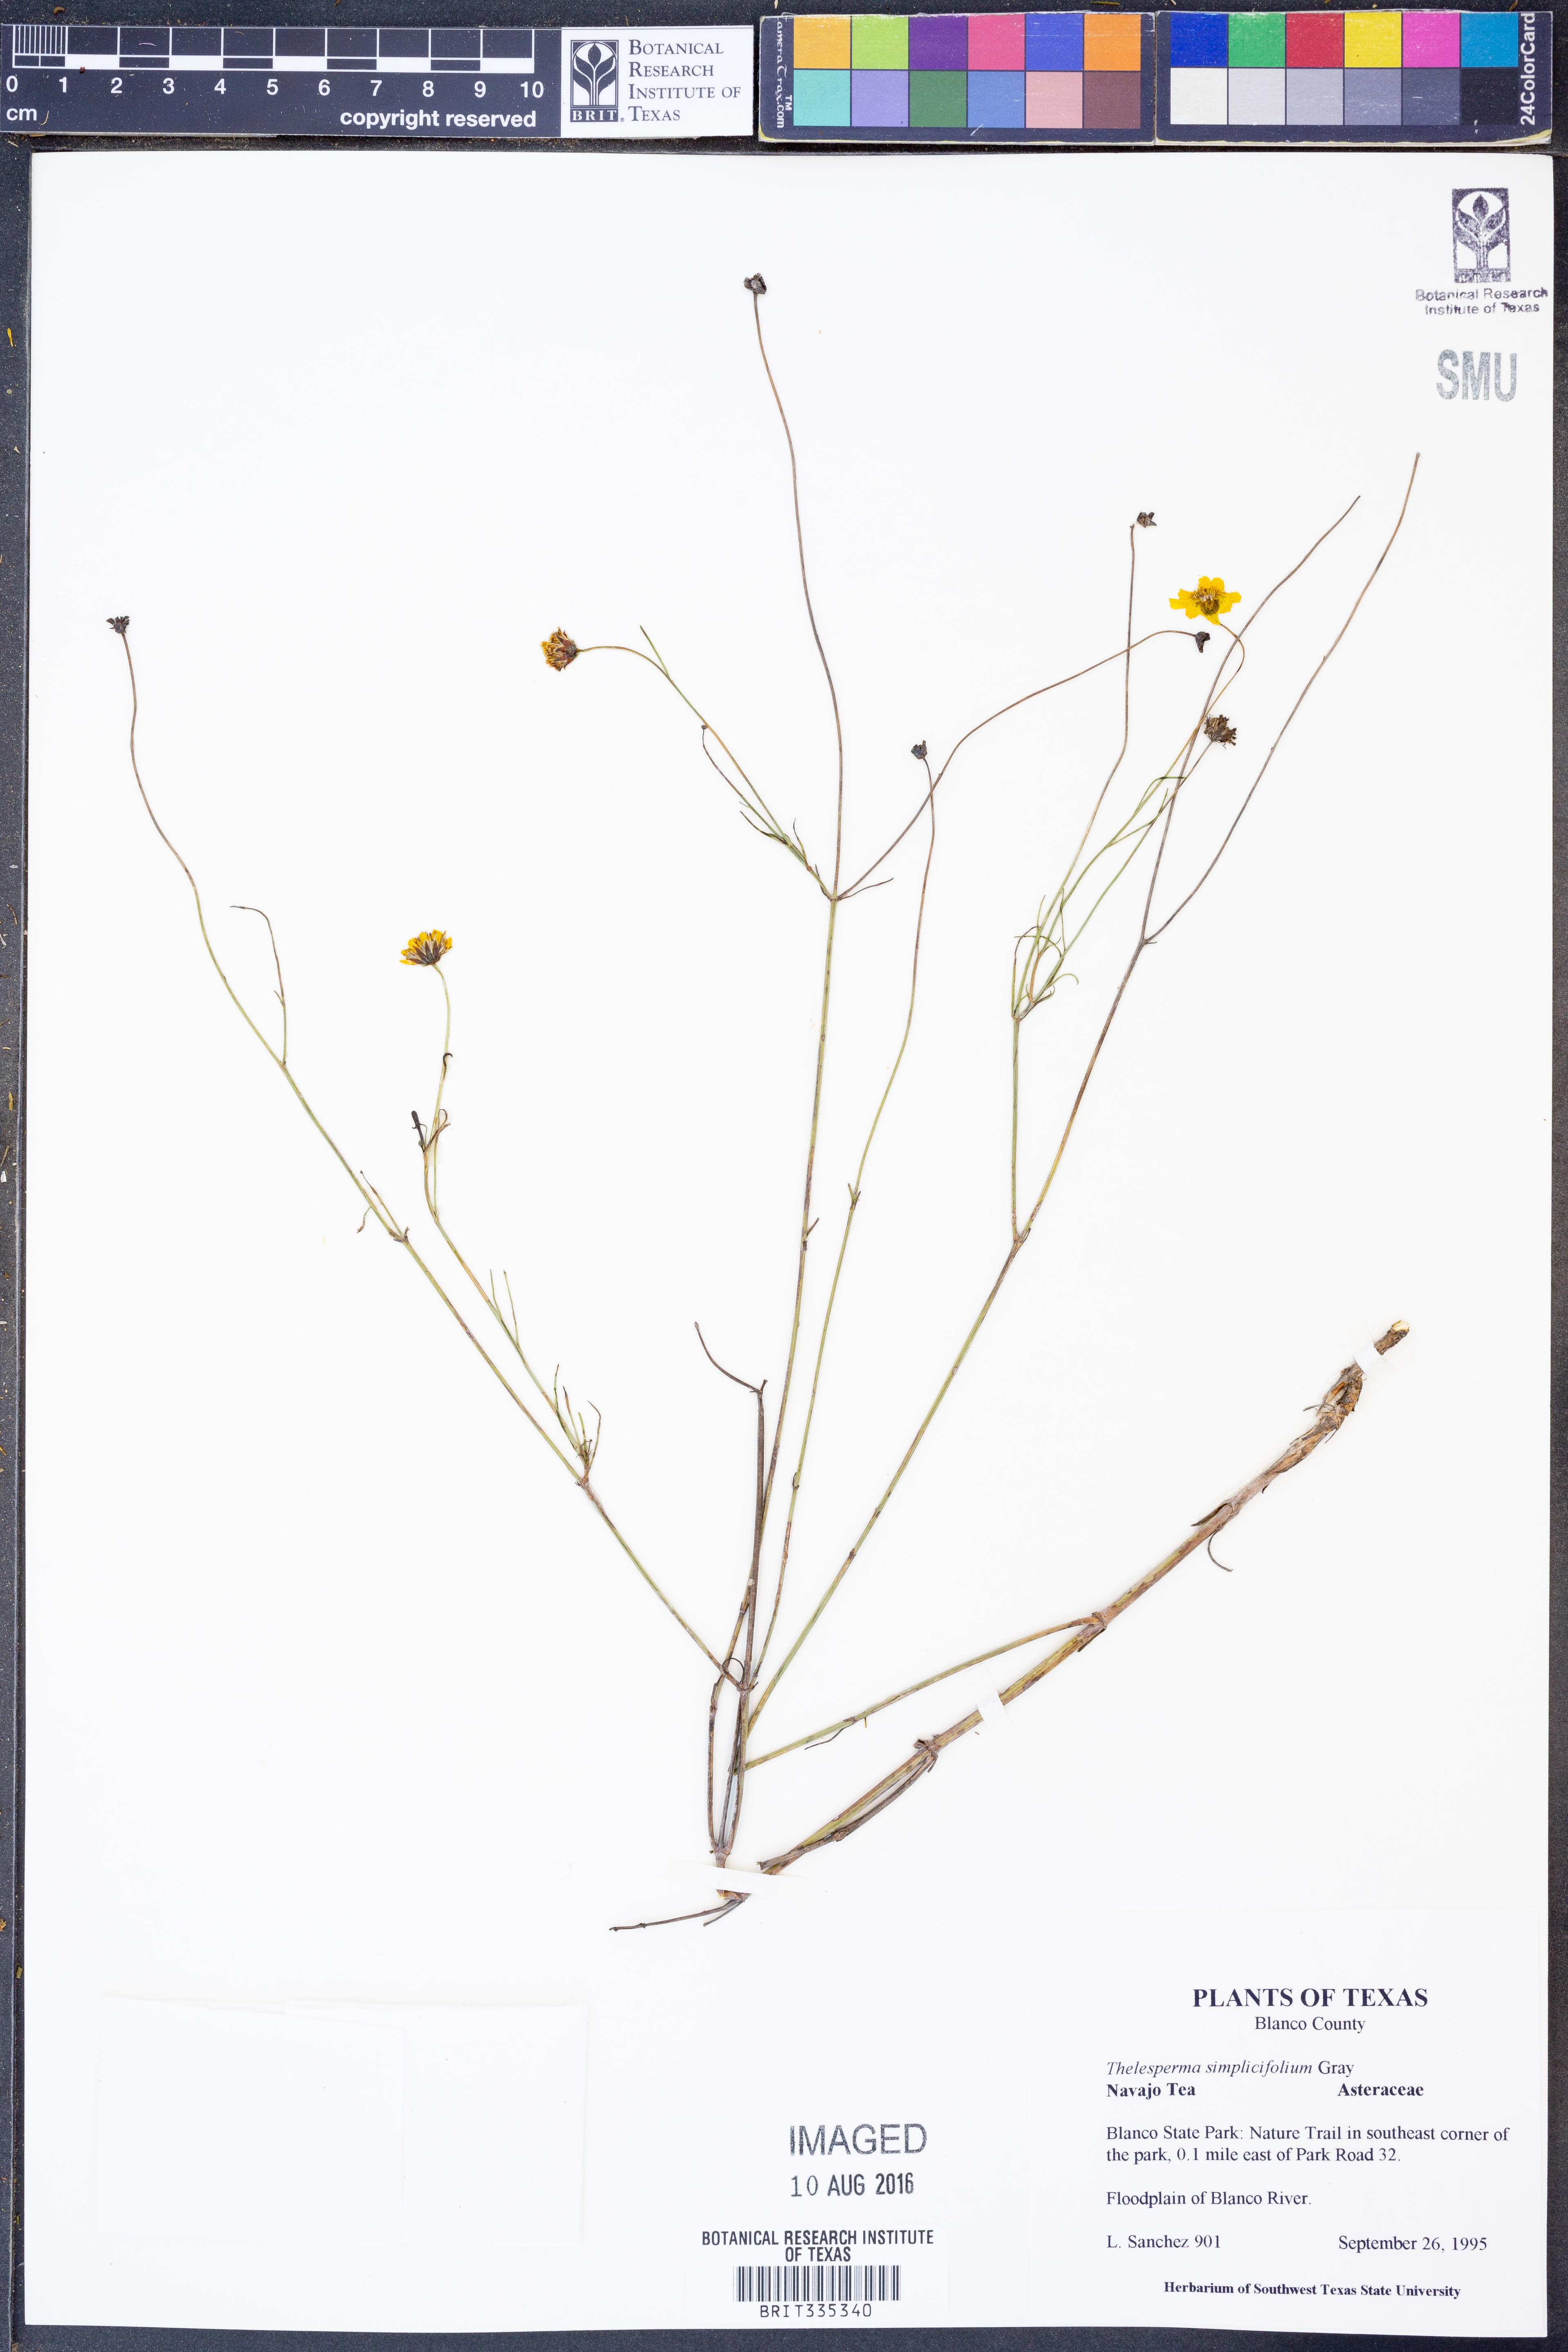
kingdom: Plantae
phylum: Tracheophyta
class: Magnoliopsida
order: Asterales
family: Asteraceae
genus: Thelesperma
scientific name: Thelesperma simplicifolium
